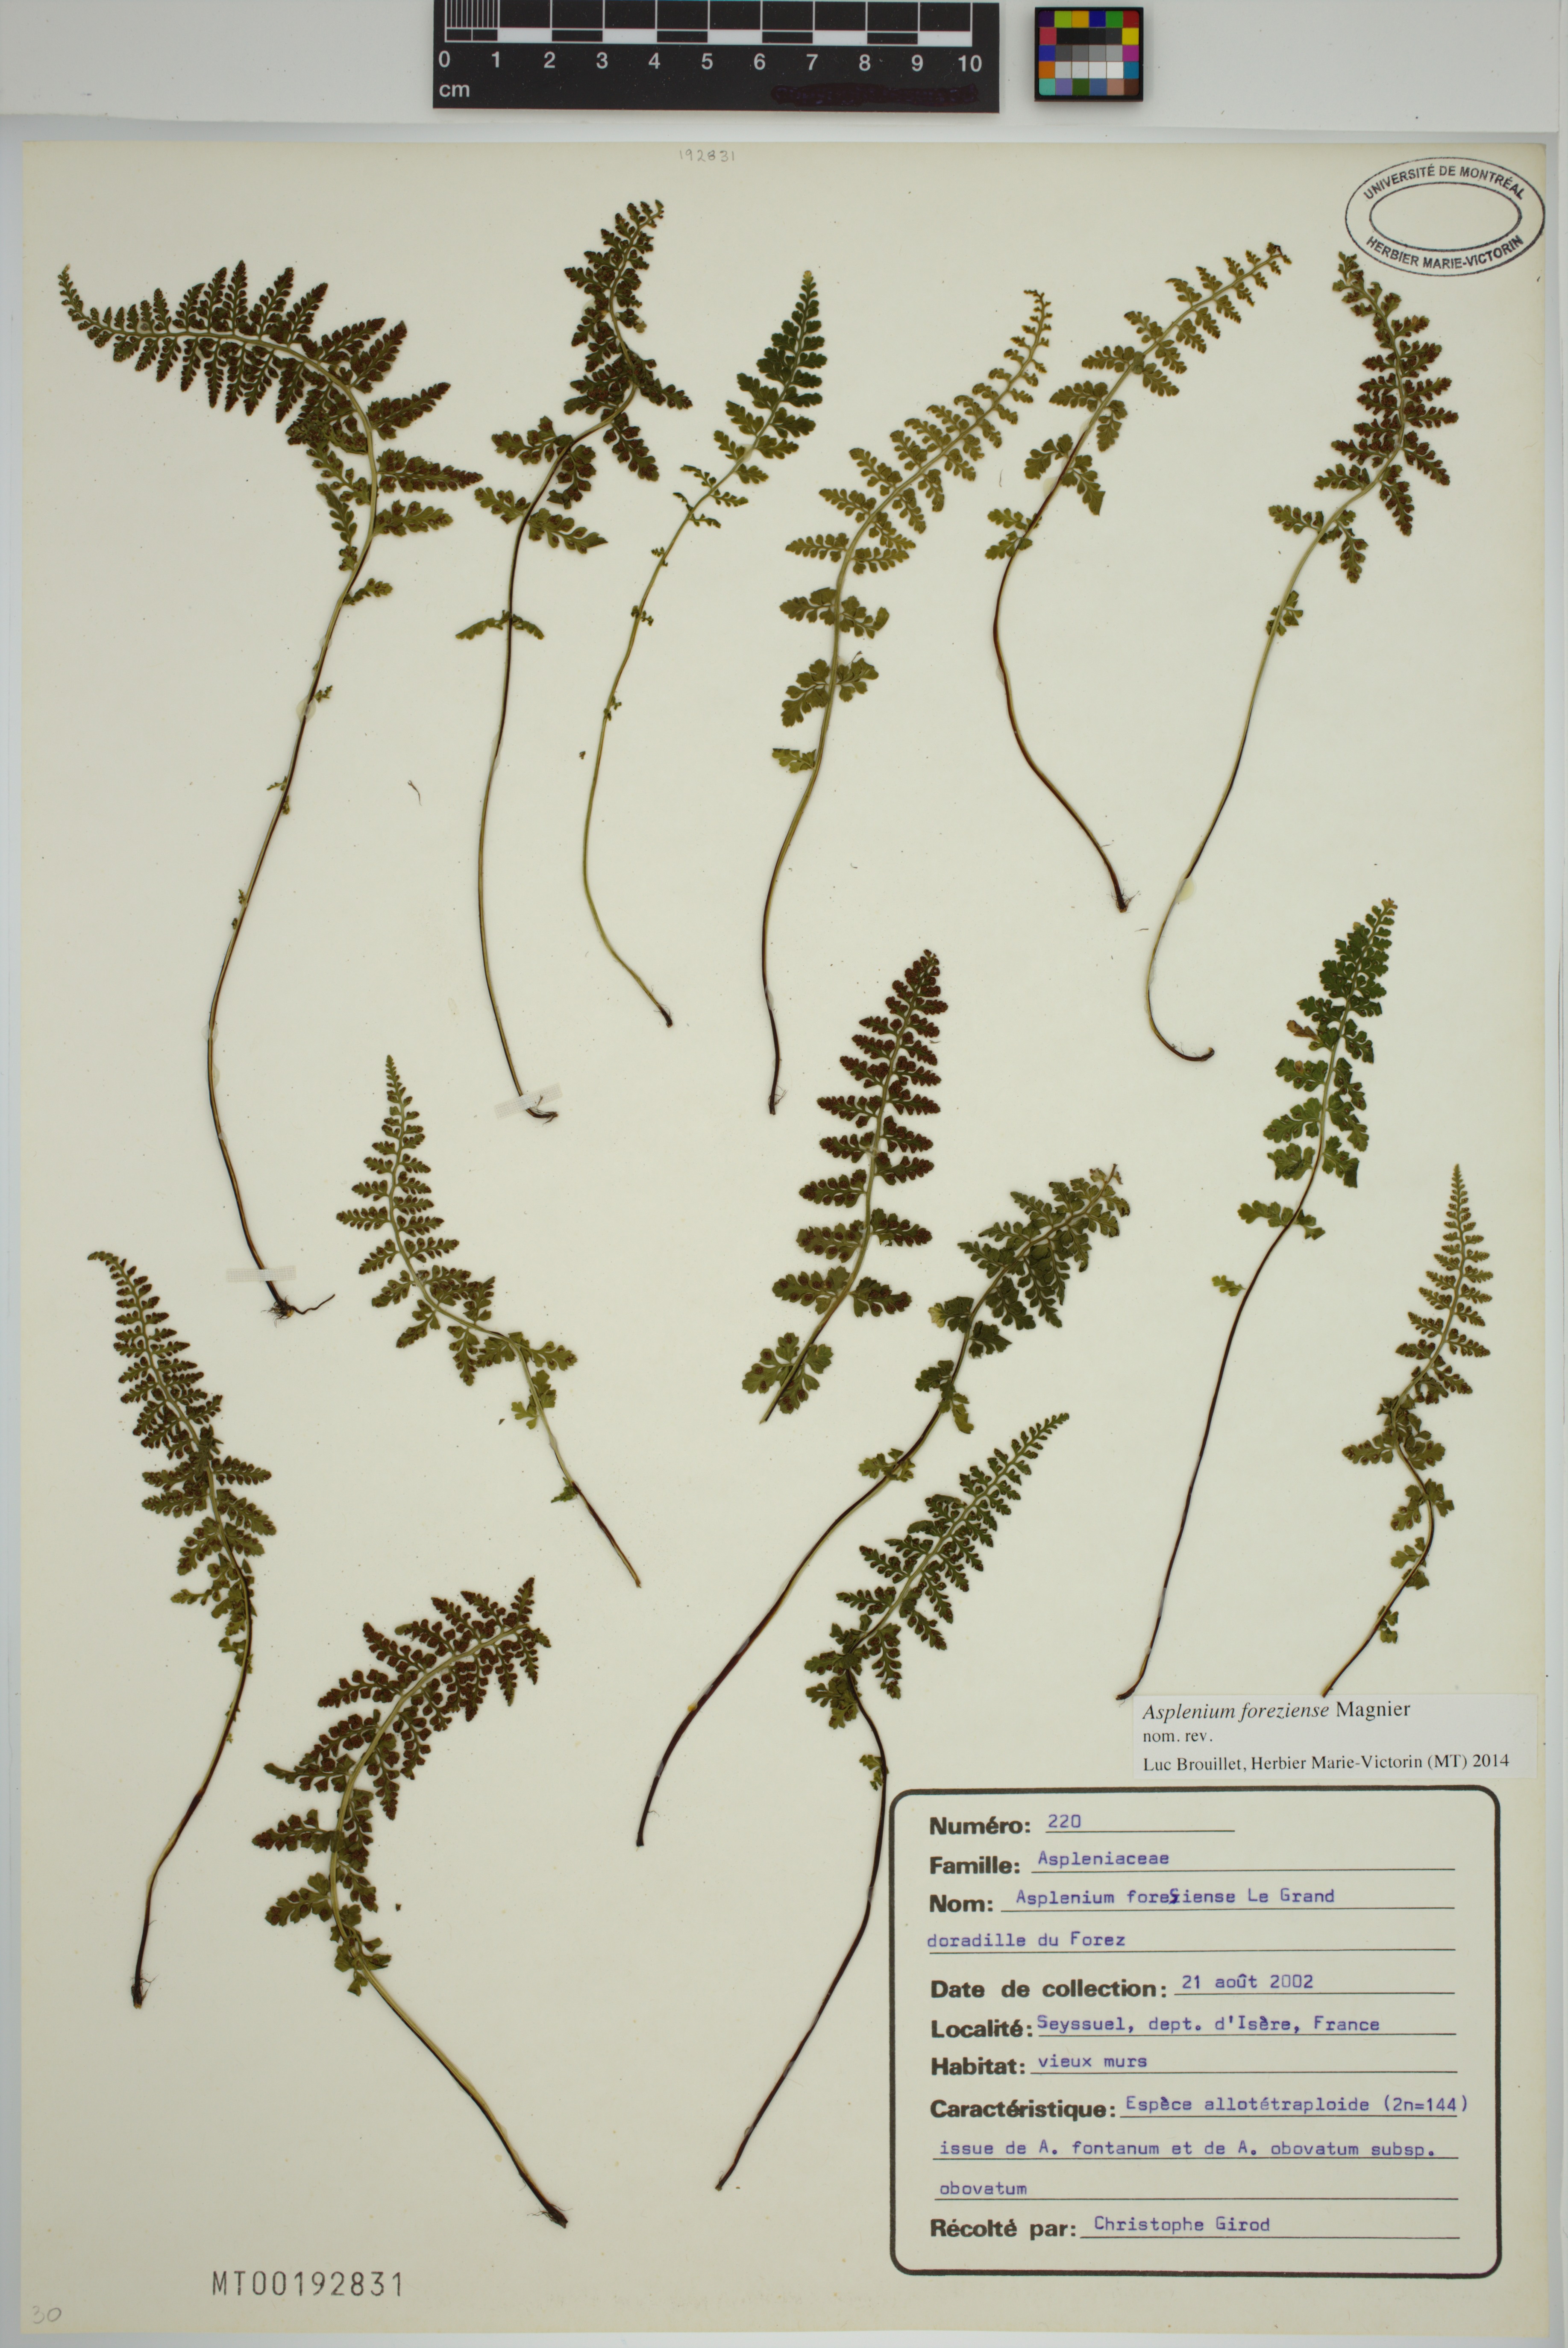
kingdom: Plantae
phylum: Tracheophyta
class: Polypodiopsida
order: Polypodiales
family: Aspleniaceae
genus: Asplenium
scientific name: Asplenium foreziense
